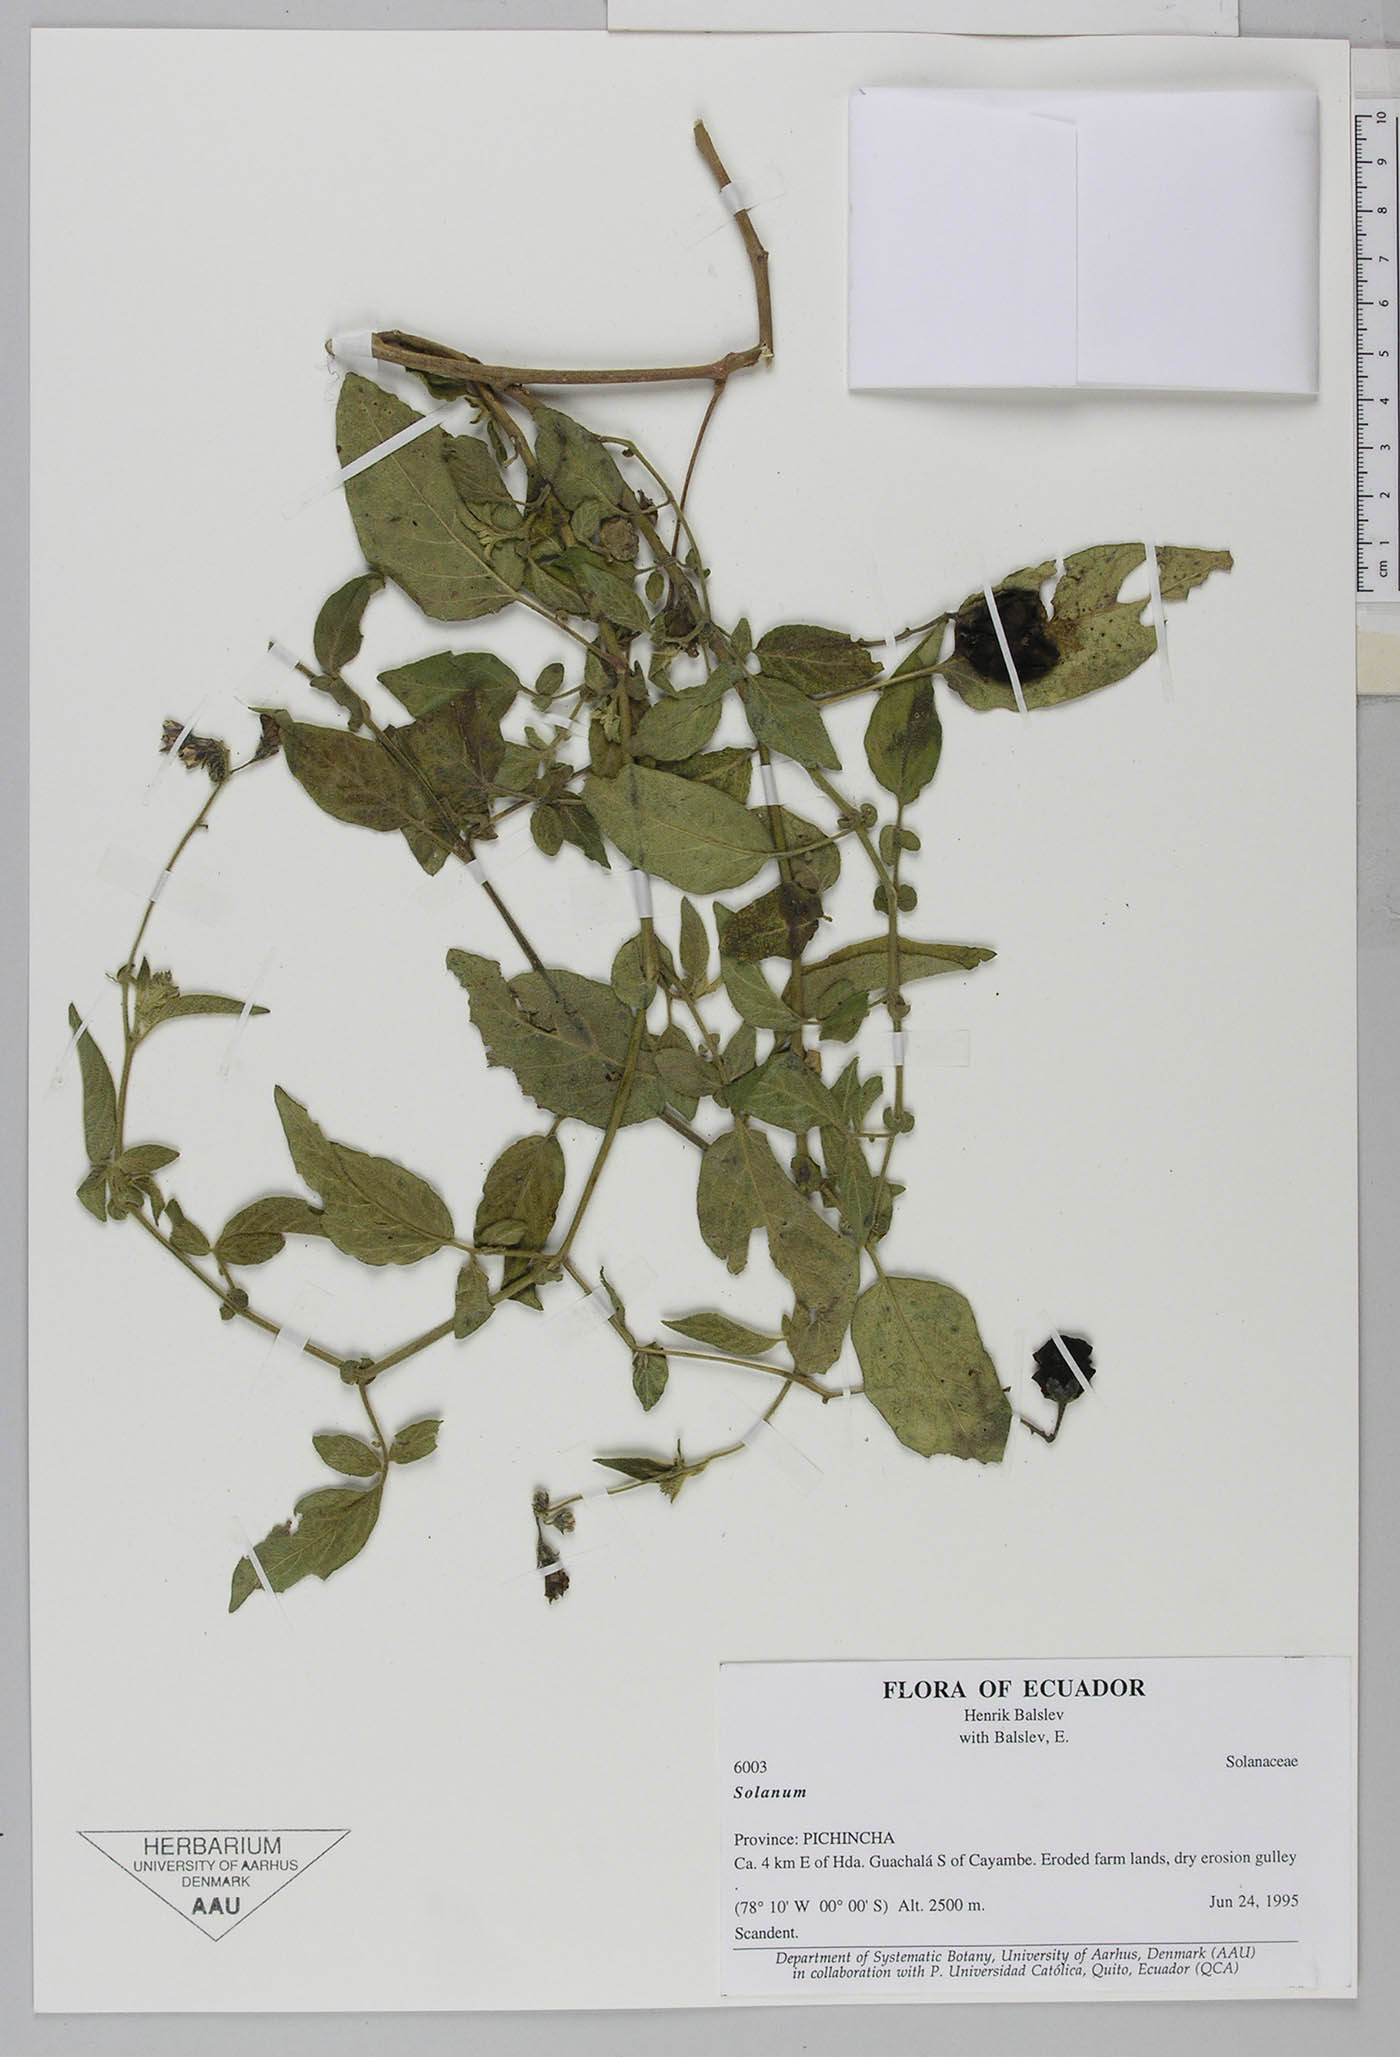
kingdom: Plantae
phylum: Tracheophyta
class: Magnoliopsida
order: Solanales
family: Solanaceae
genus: Solanum
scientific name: Solanum caripense
